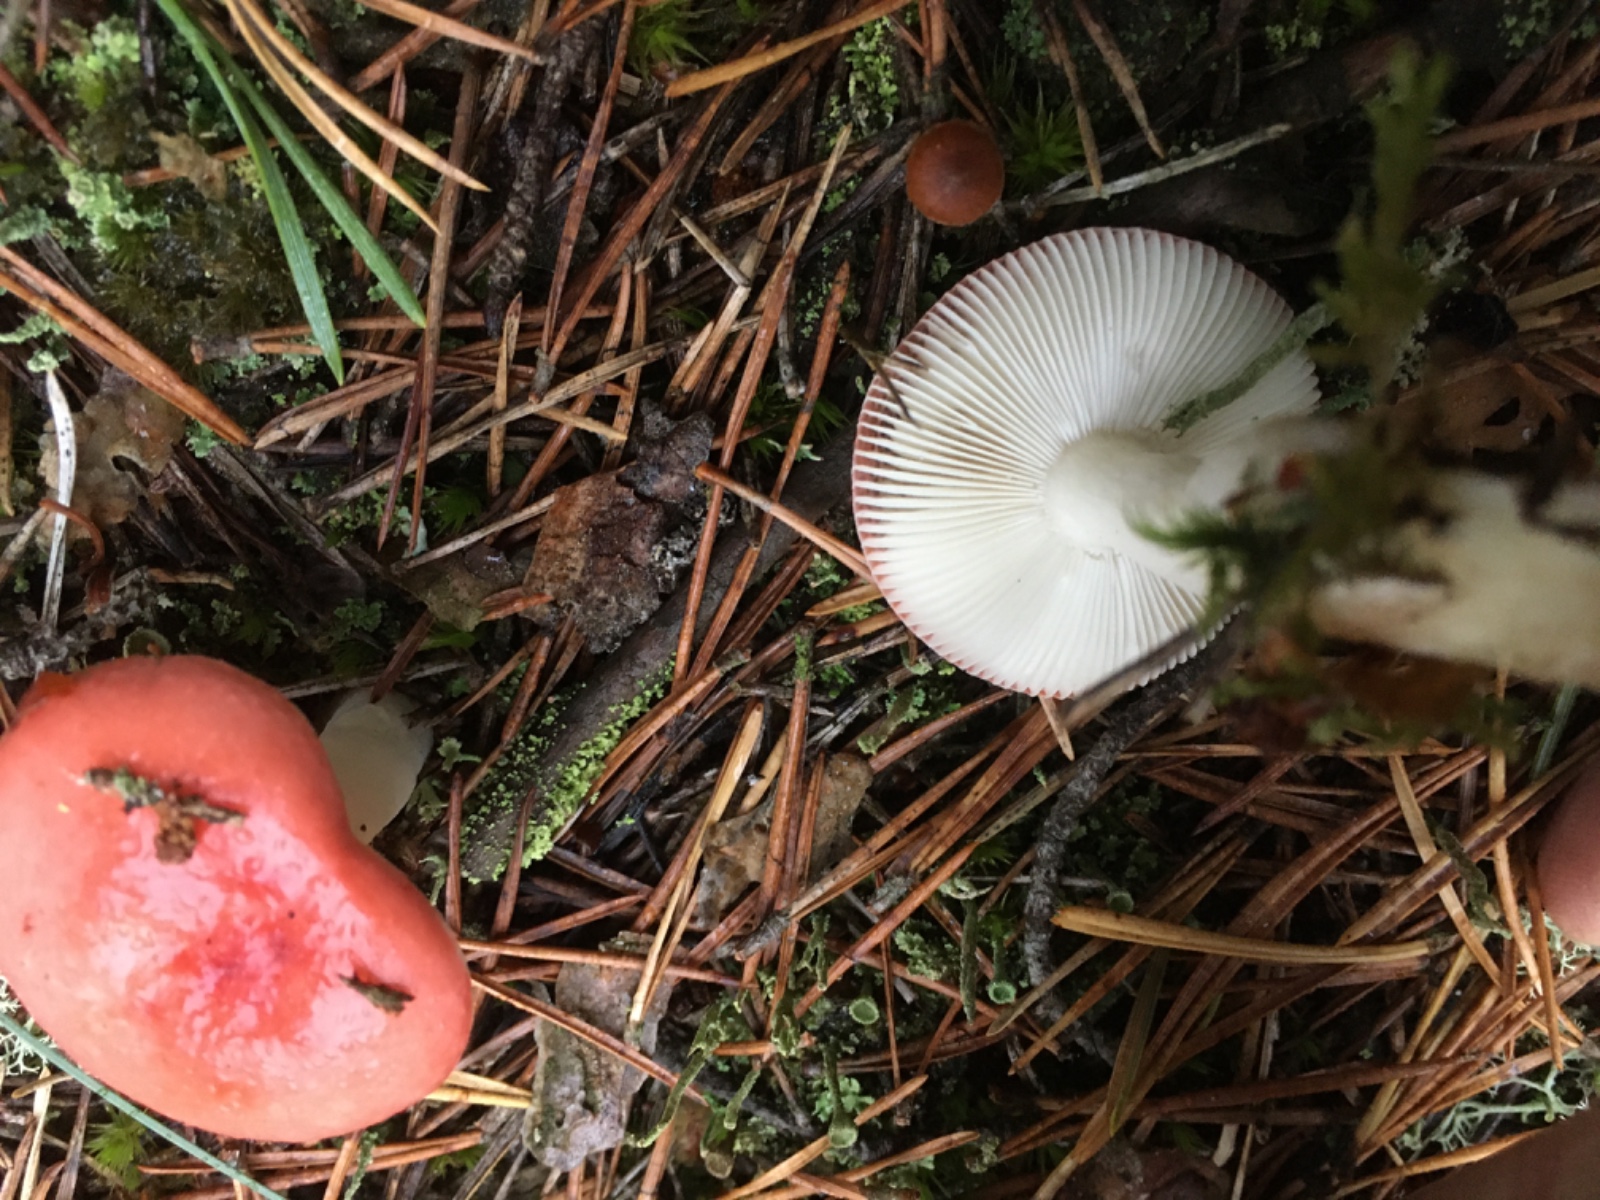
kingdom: Fungi
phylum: Basidiomycota
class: Agaricomycetes
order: Russulales
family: Russulaceae
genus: Russula
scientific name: Russula emetica
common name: stor gift-skørhat
